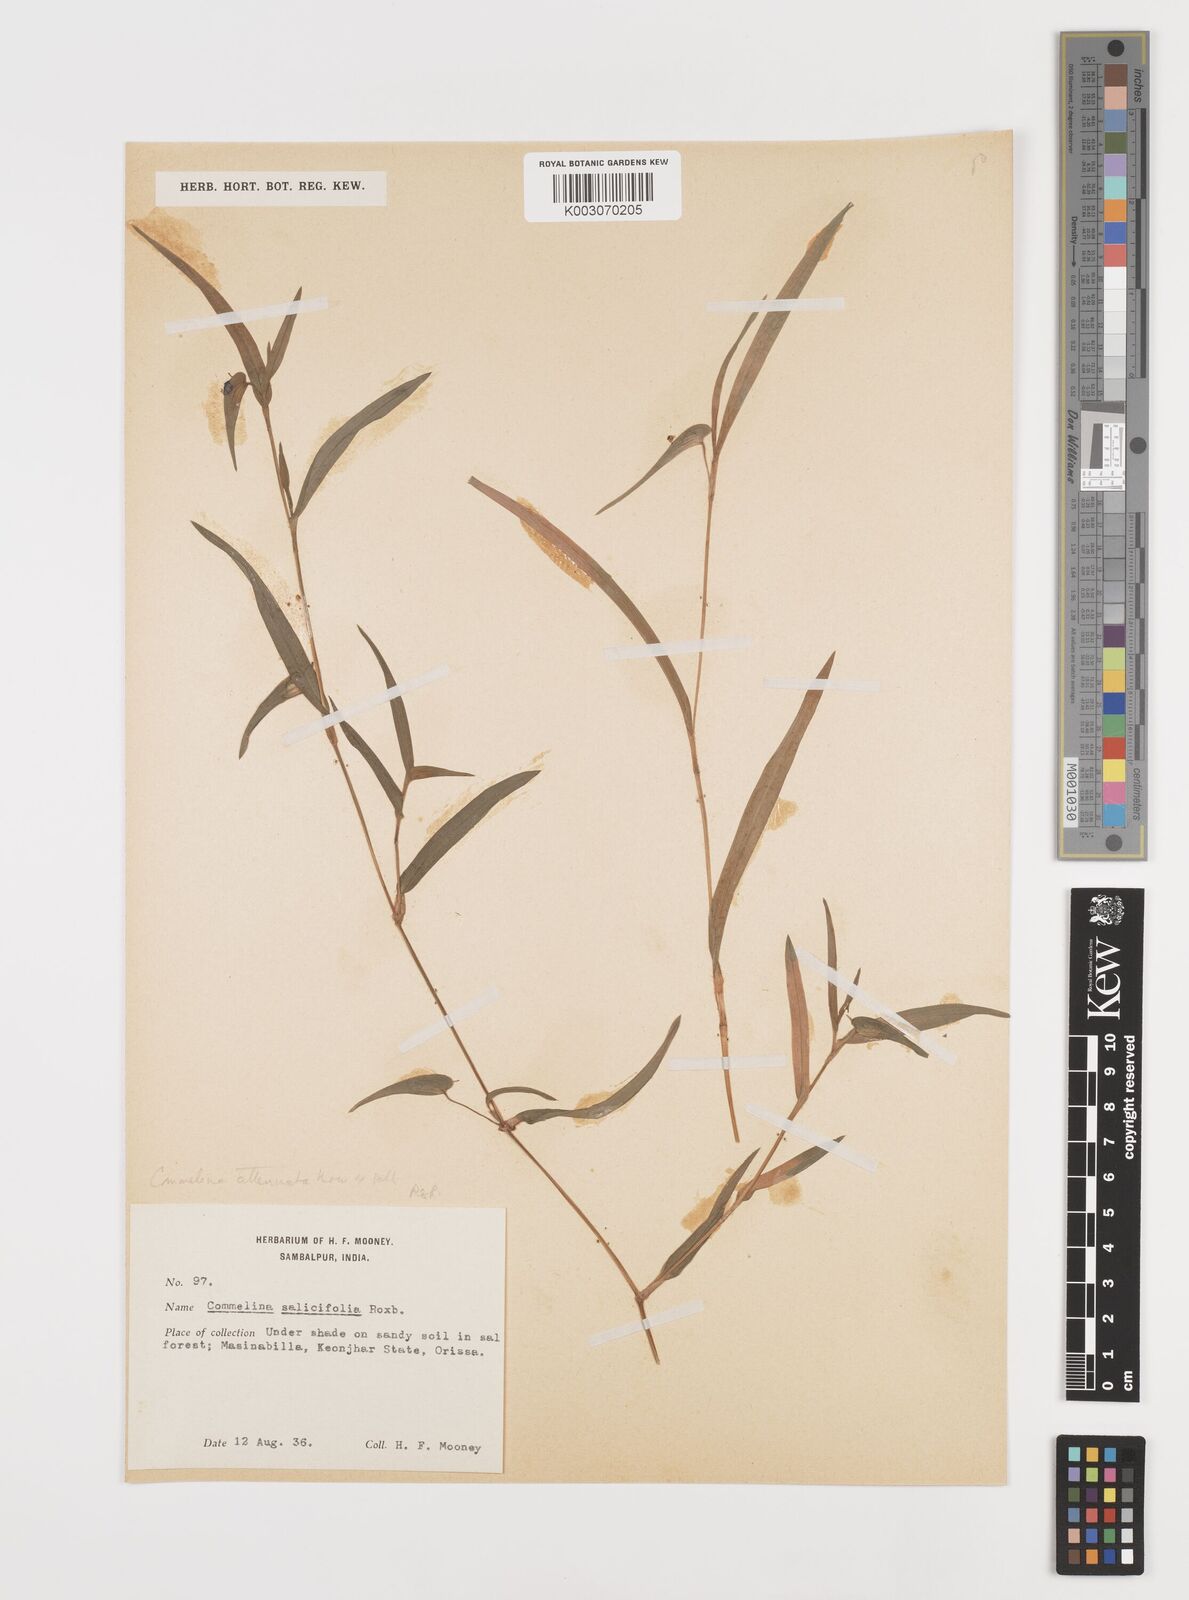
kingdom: Plantae
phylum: Tracheophyta
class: Liliopsida
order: Commelinales
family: Commelinaceae
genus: Commelina
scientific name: Commelina attenuata
